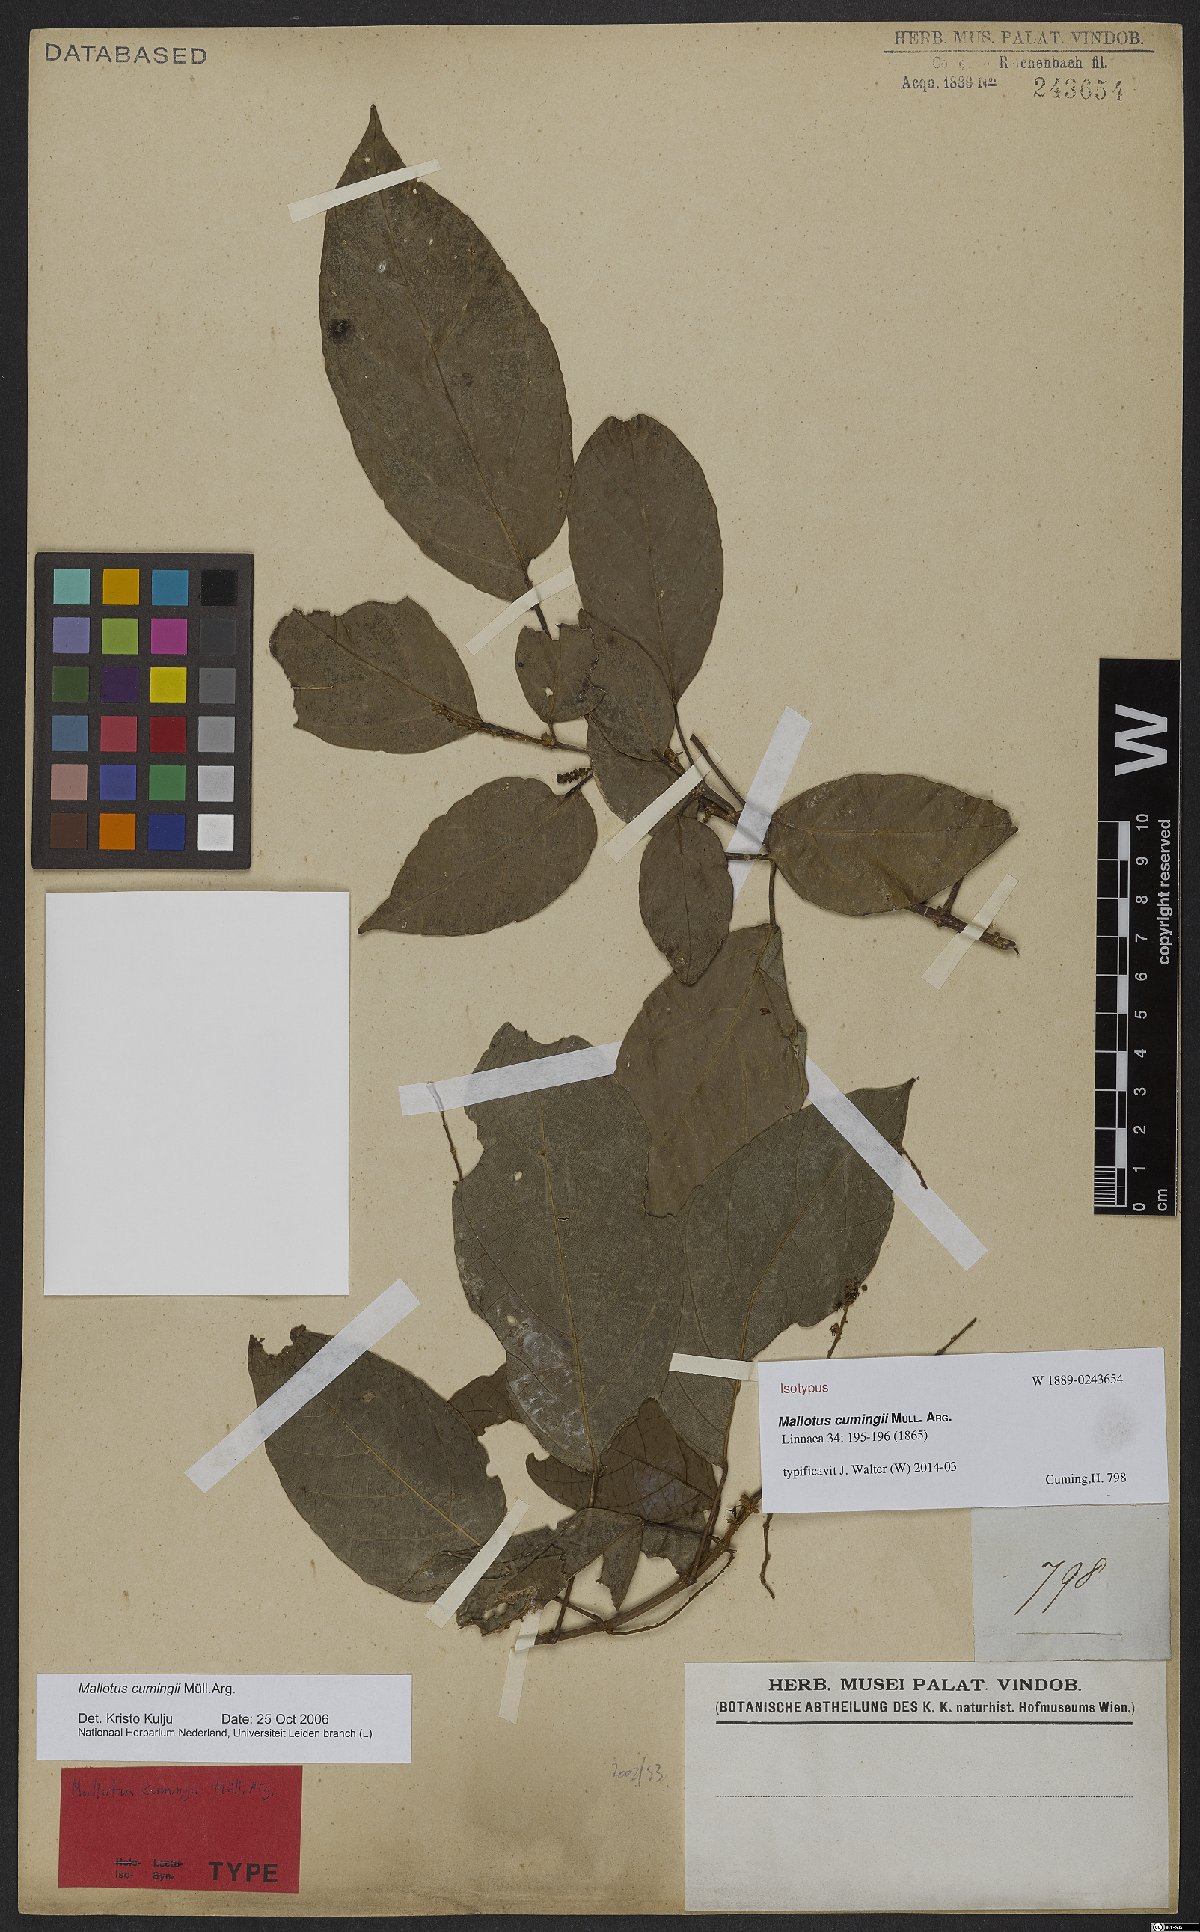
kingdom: Plantae
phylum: Tracheophyta
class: Magnoliopsida
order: Malpighiales
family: Euphorbiaceae
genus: Mallotus
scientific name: Mallotus cumingii
